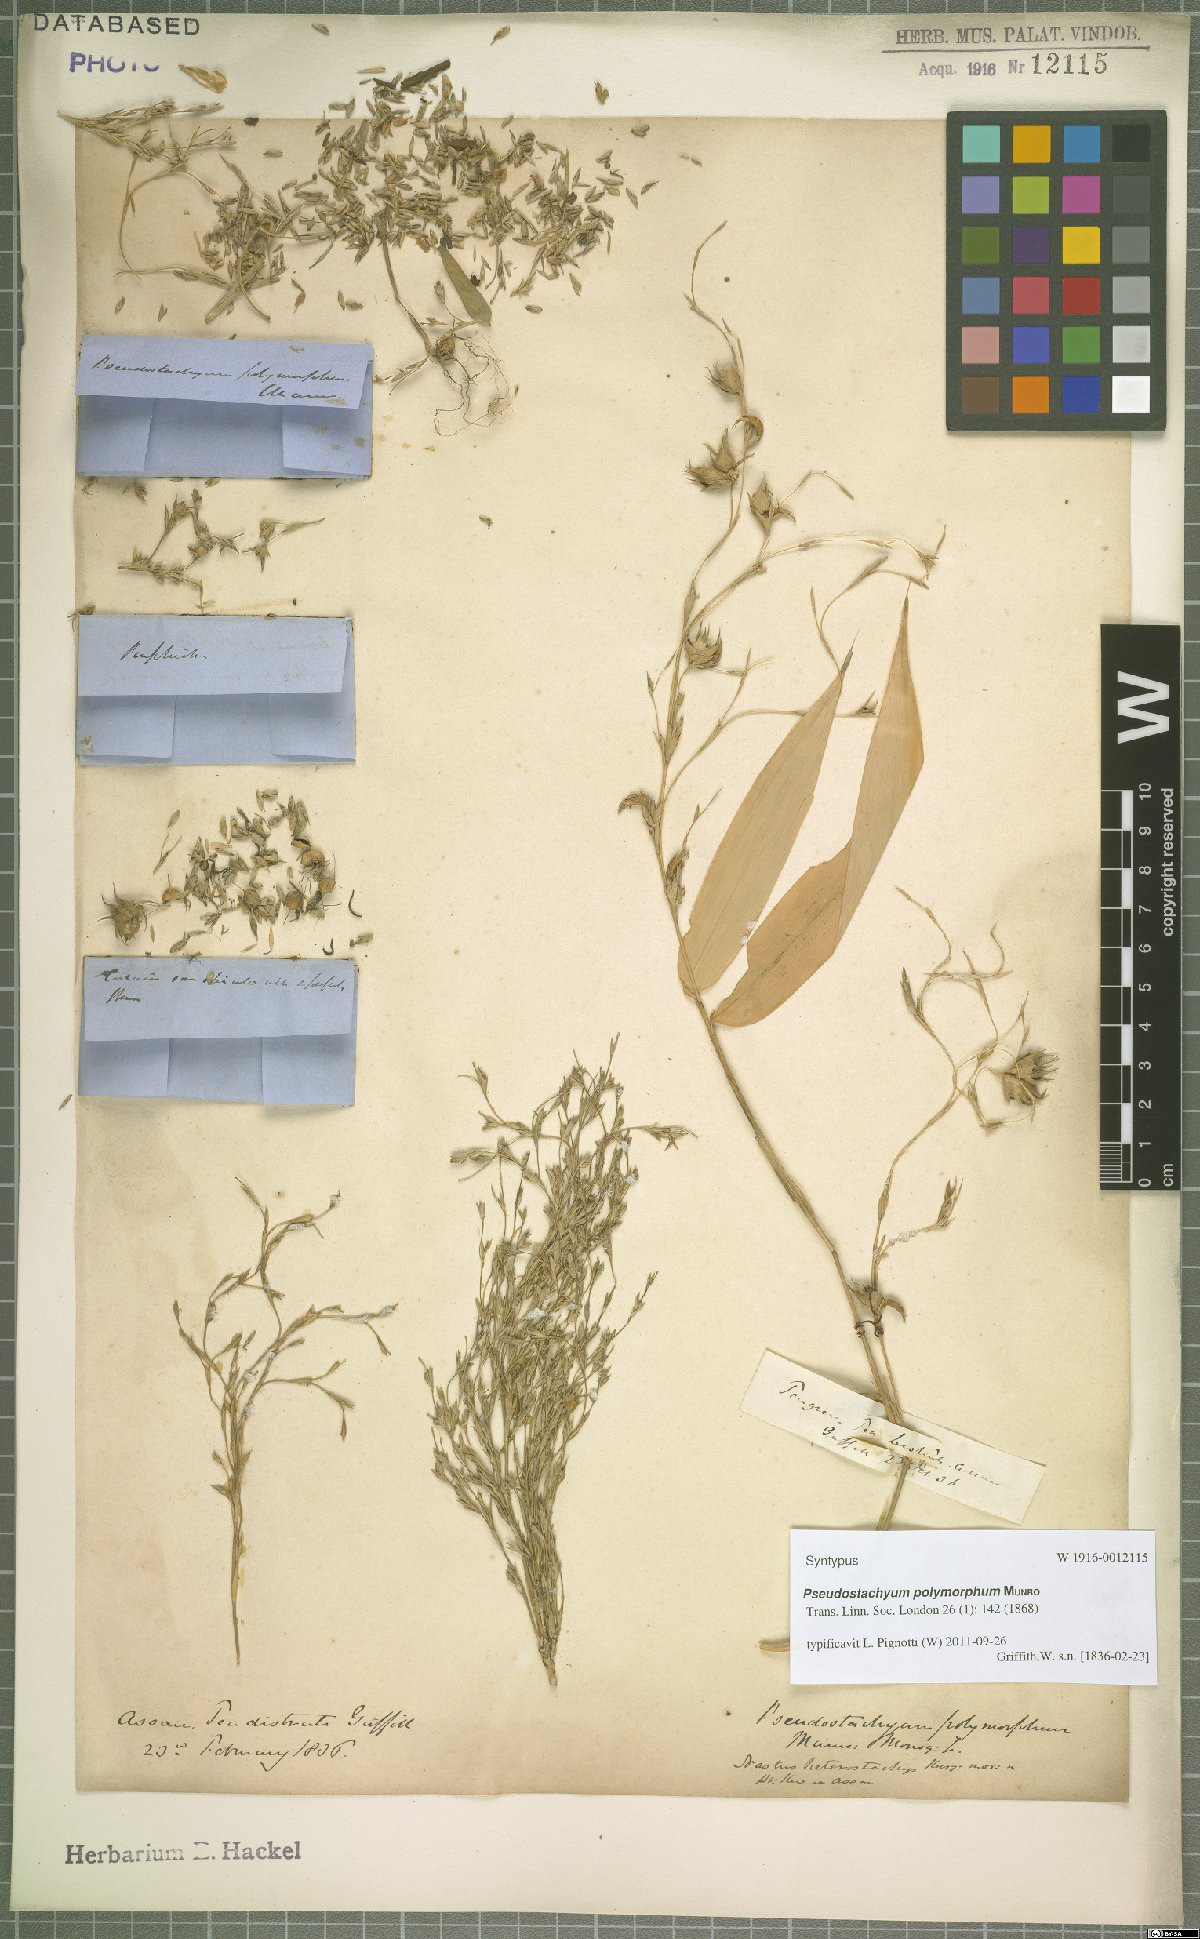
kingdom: Plantae
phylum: Tracheophyta
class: Liliopsida
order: Poales
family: Poaceae
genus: Pseudostachyum
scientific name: Pseudostachyum polymorphum
